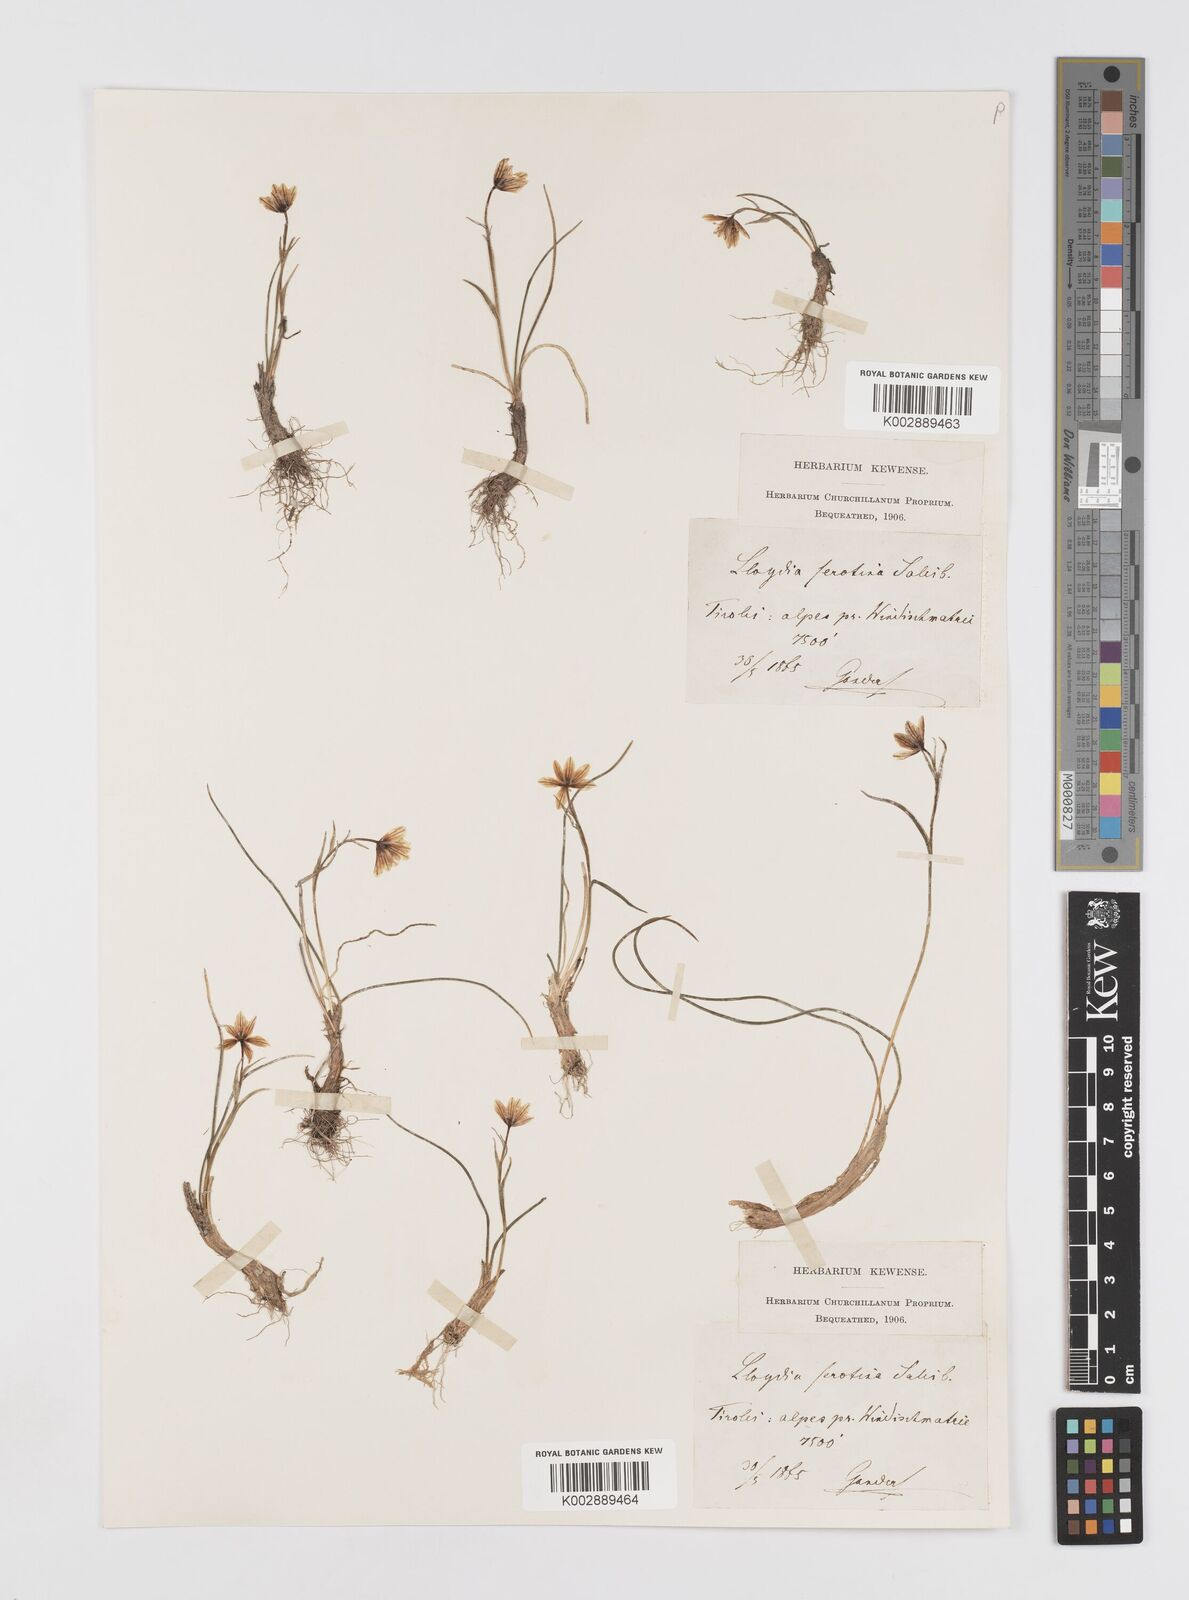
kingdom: Plantae
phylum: Tracheophyta
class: Liliopsida
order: Liliales
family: Liliaceae
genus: Gagea
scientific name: Gagea
